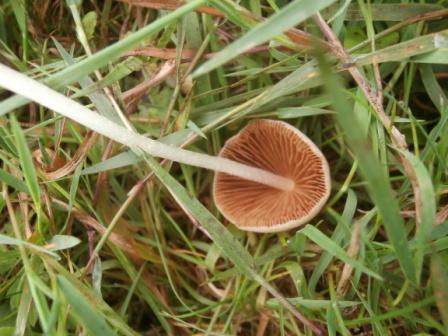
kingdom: Fungi
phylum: Basidiomycota
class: Agaricomycetes
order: Agaricales
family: Bolbitiaceae
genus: Bolbitius
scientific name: Bolbitius titubans
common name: almindelig gulhat
